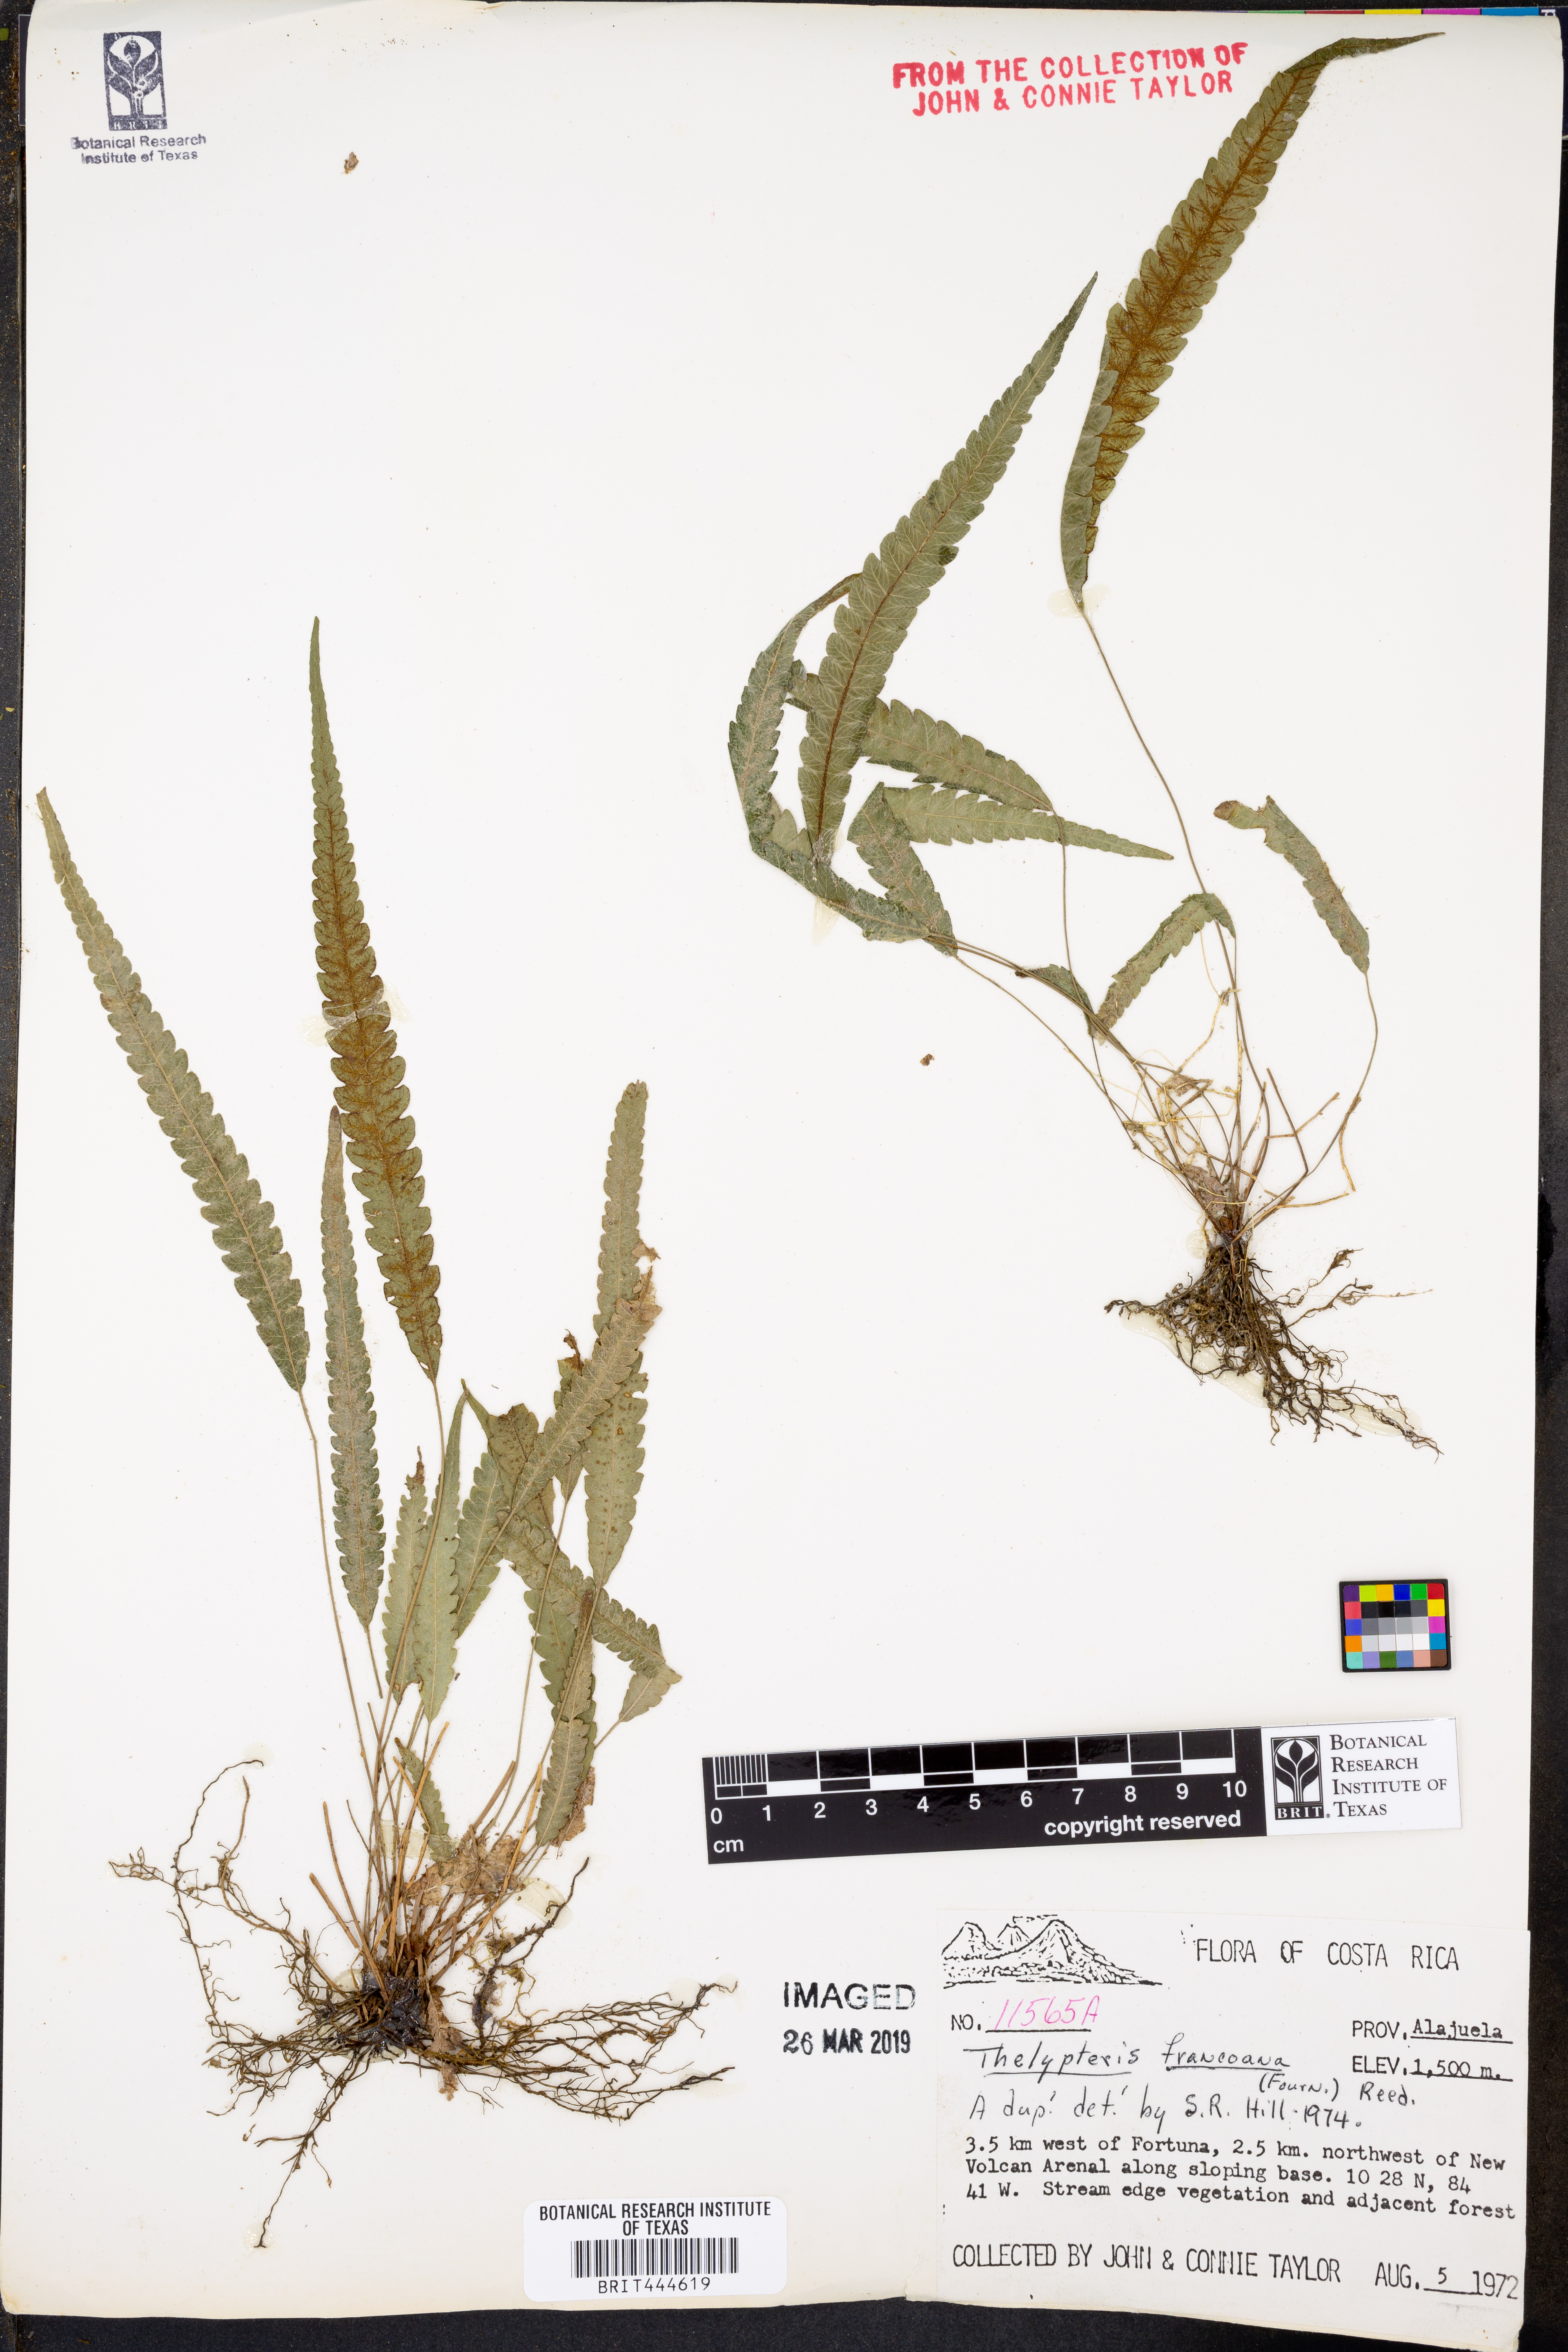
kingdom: Plantae
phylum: Tracheophyta
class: Polypodiopsida
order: Polypodiales
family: Thelypteridaceae
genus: Goniopteris
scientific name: Goniopteris francoana
